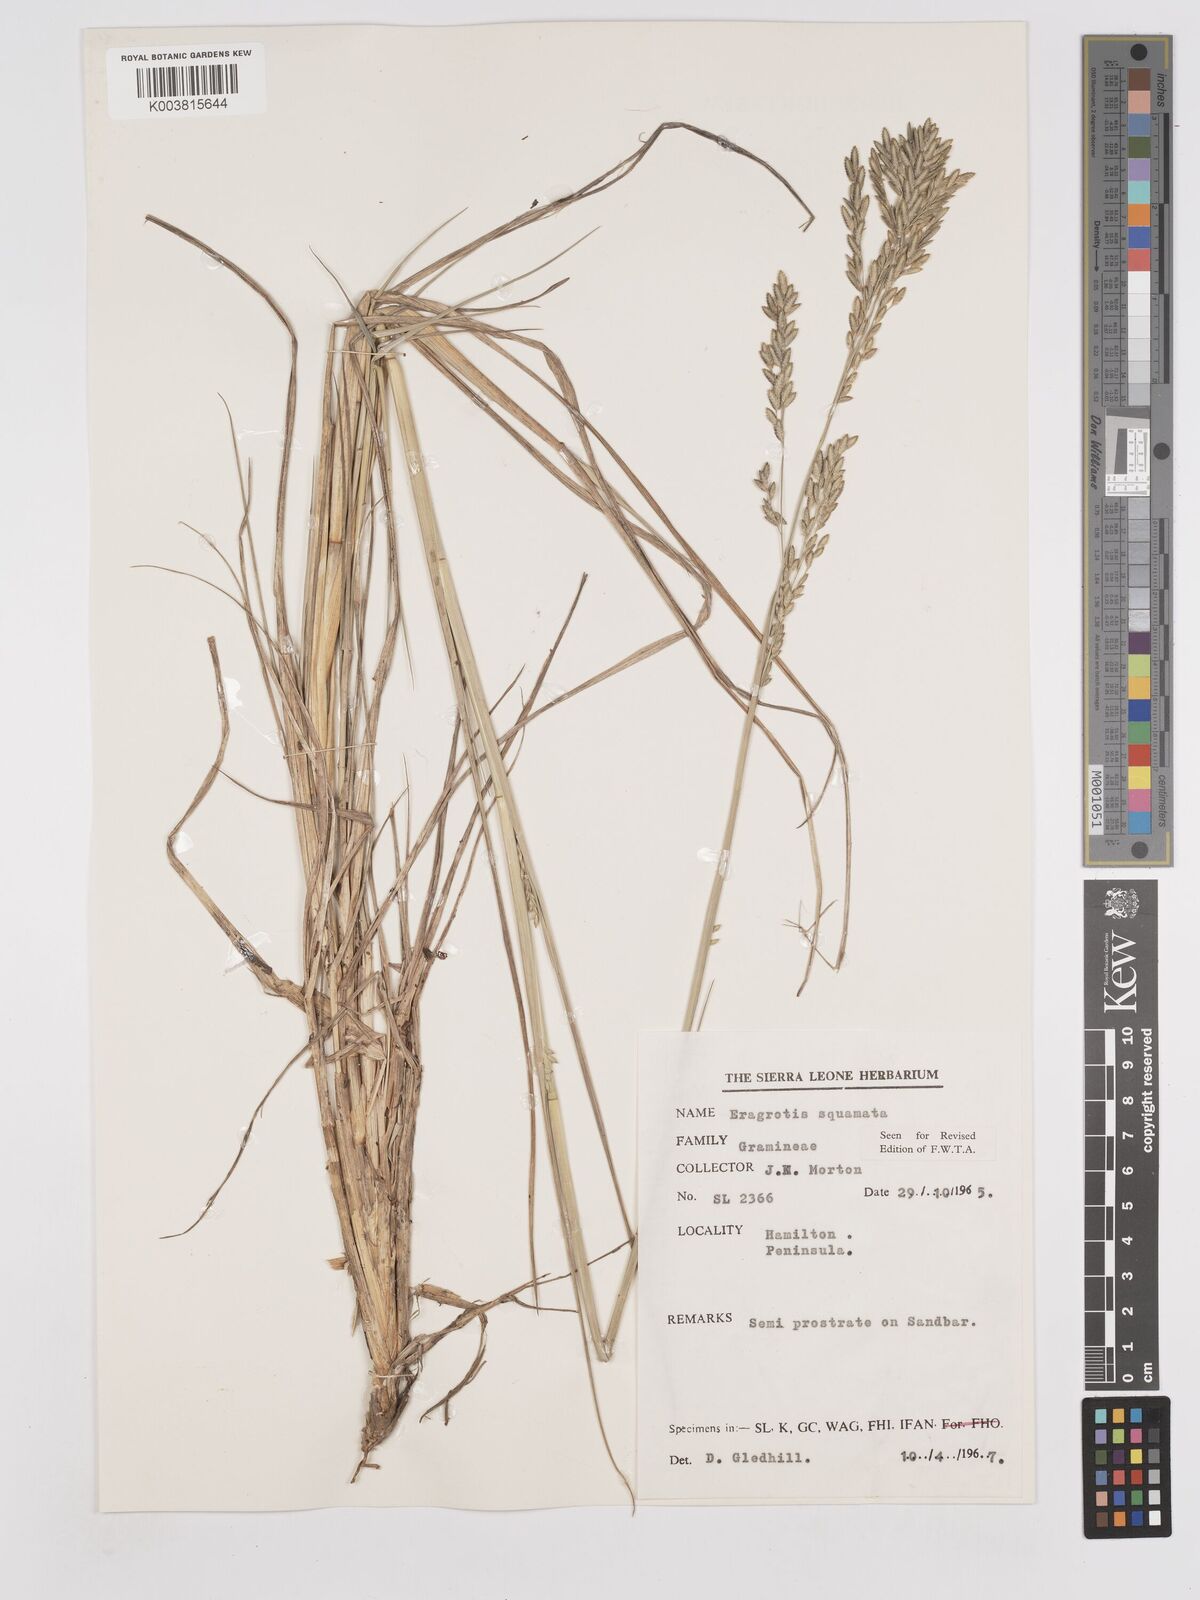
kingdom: Plantae
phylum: Tracheophyta
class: Liliopsida
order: Poales
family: Poaceae
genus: Eragrostis
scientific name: Eragrostis squamata
